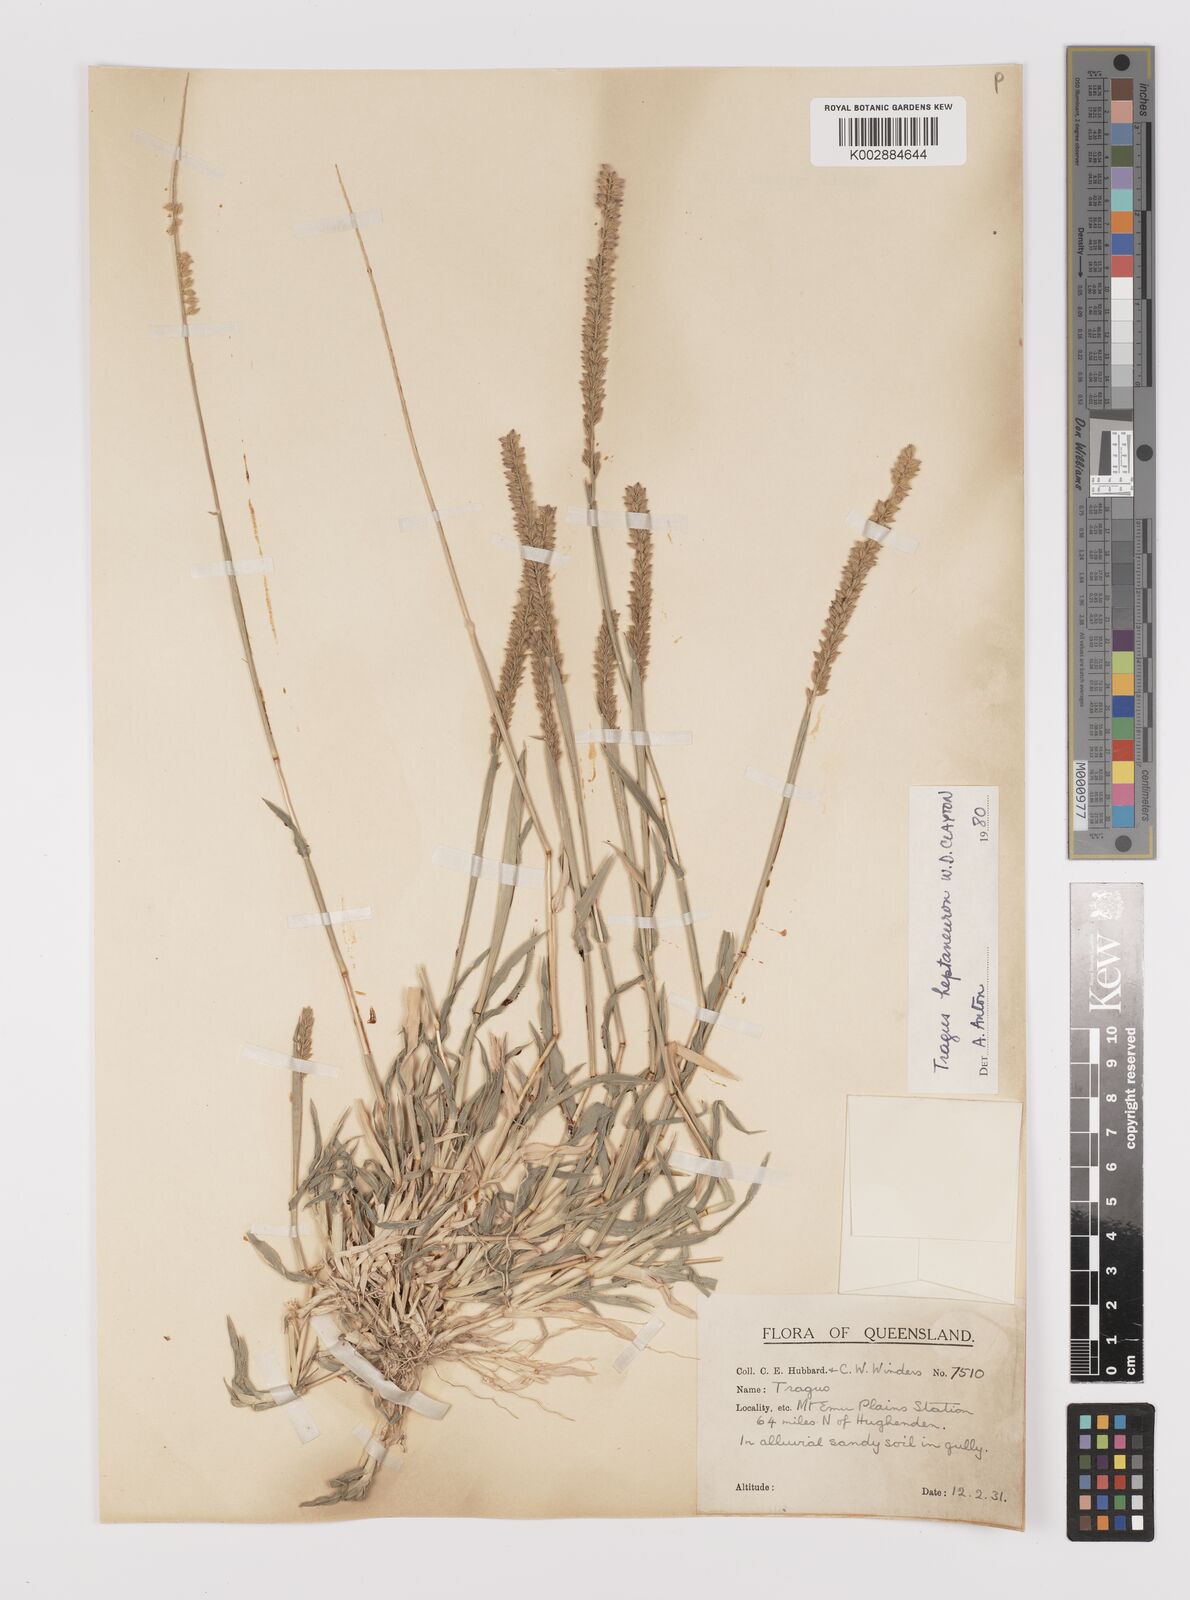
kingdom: Plantae
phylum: Tracheophyta
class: Liliopsida
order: Poales
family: Poaceae
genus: Tragus
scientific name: Tragus australianus
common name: Australian bur-grass
